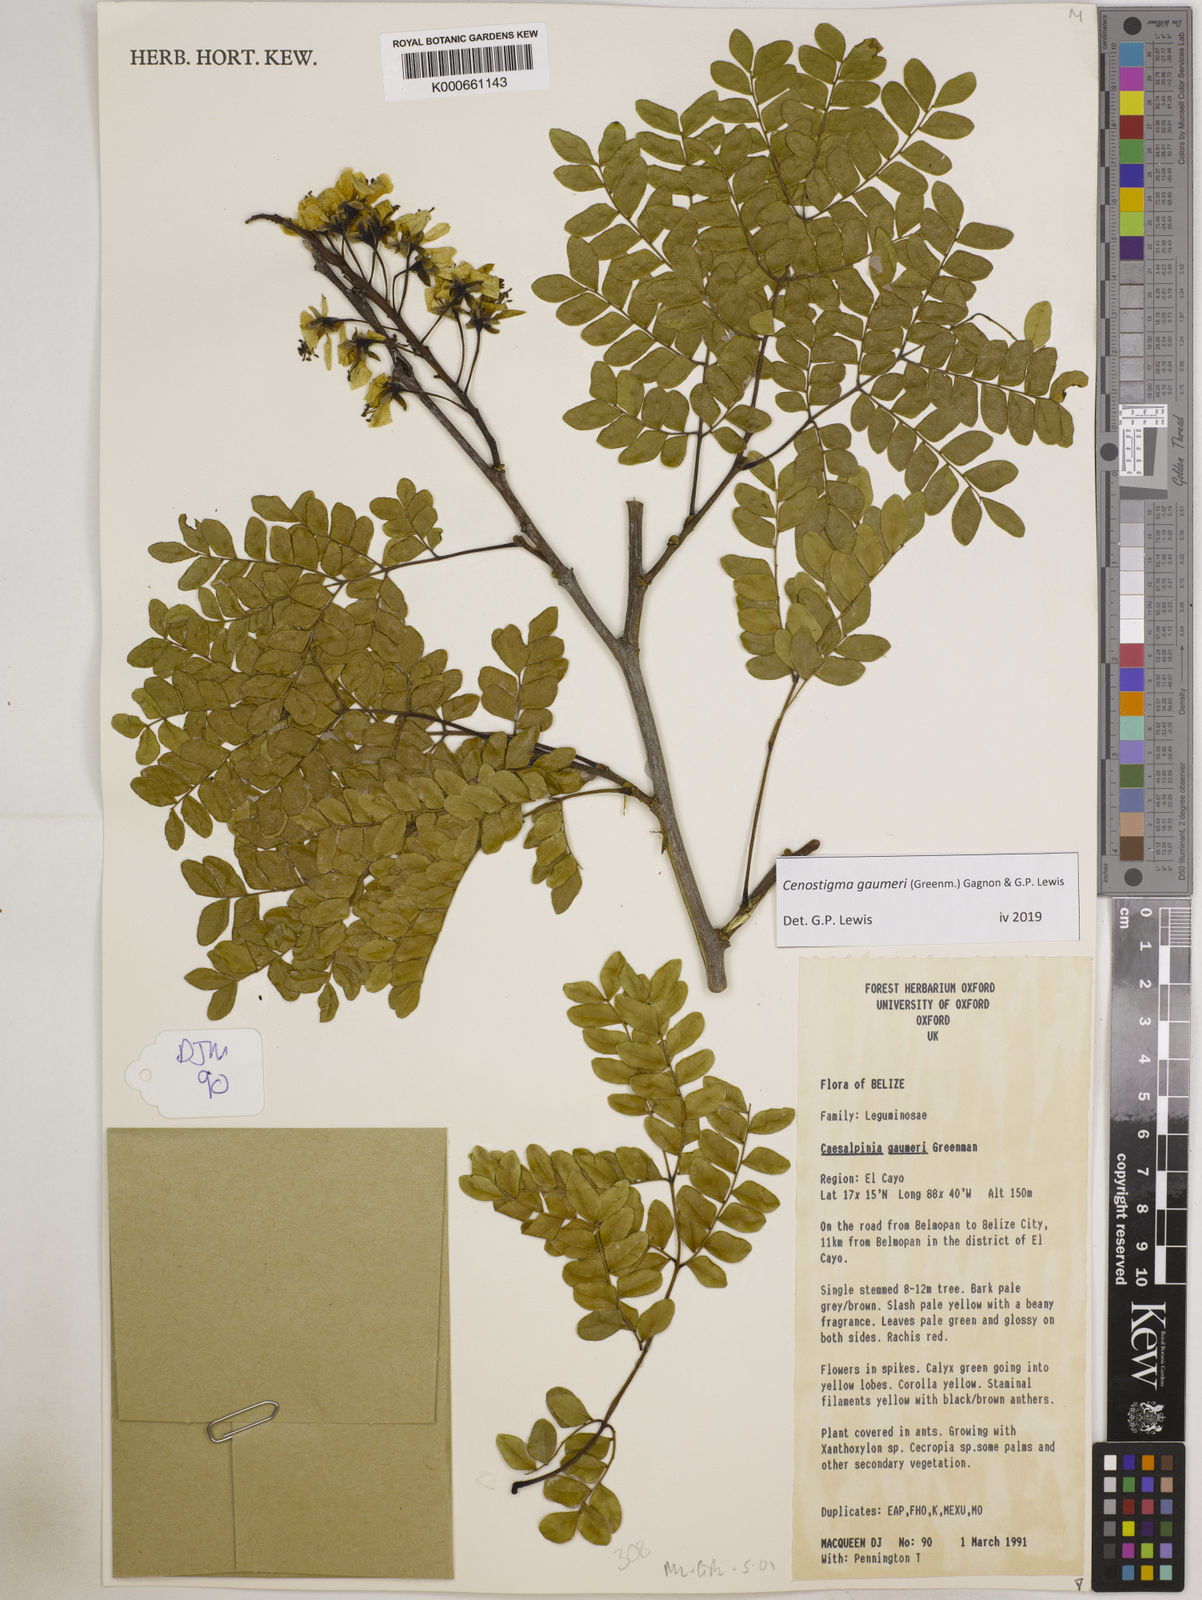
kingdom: Plantae
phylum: Tracheophyta
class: Magnoliopsida
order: Fabales
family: Fabaceae
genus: Cenostigma
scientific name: Cenostigma gaumeri
